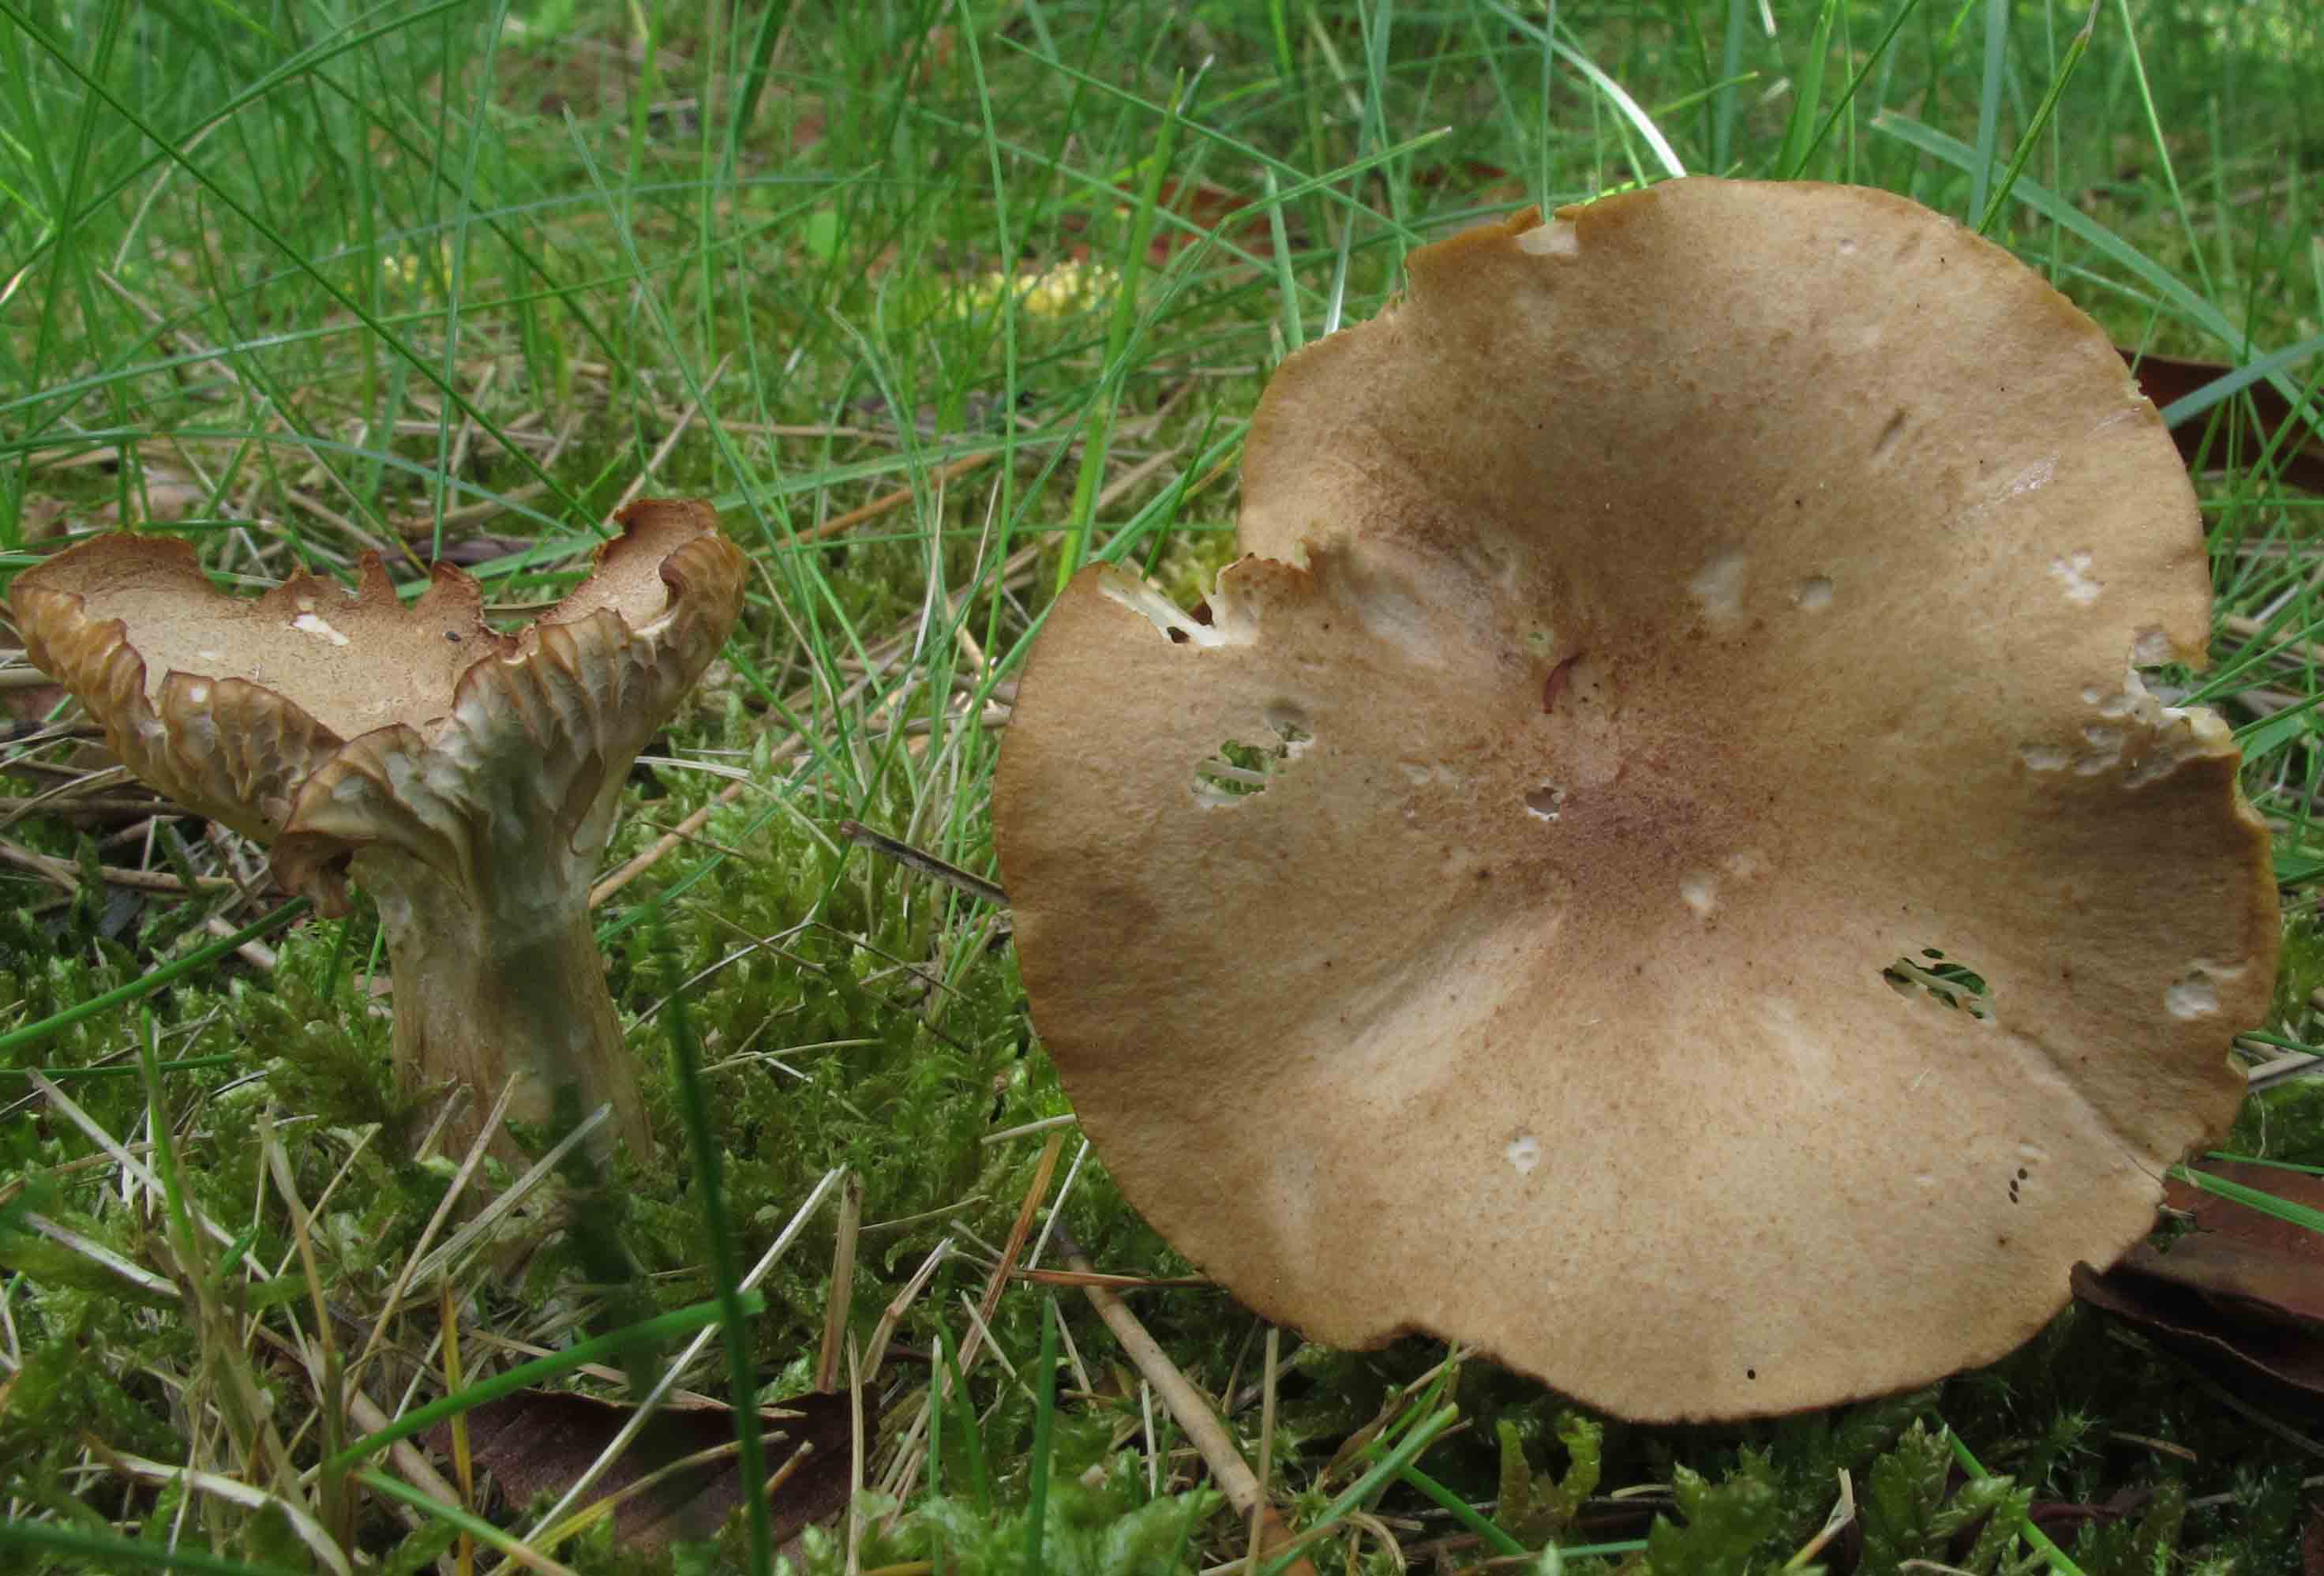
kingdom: Fungi
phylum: Basidiomycota
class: Agaricomycetes
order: Agaricales
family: Tricholomataceae
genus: Infundibulicybe
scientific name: Infundibulicybe squamulosa
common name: småskællet tragthat
